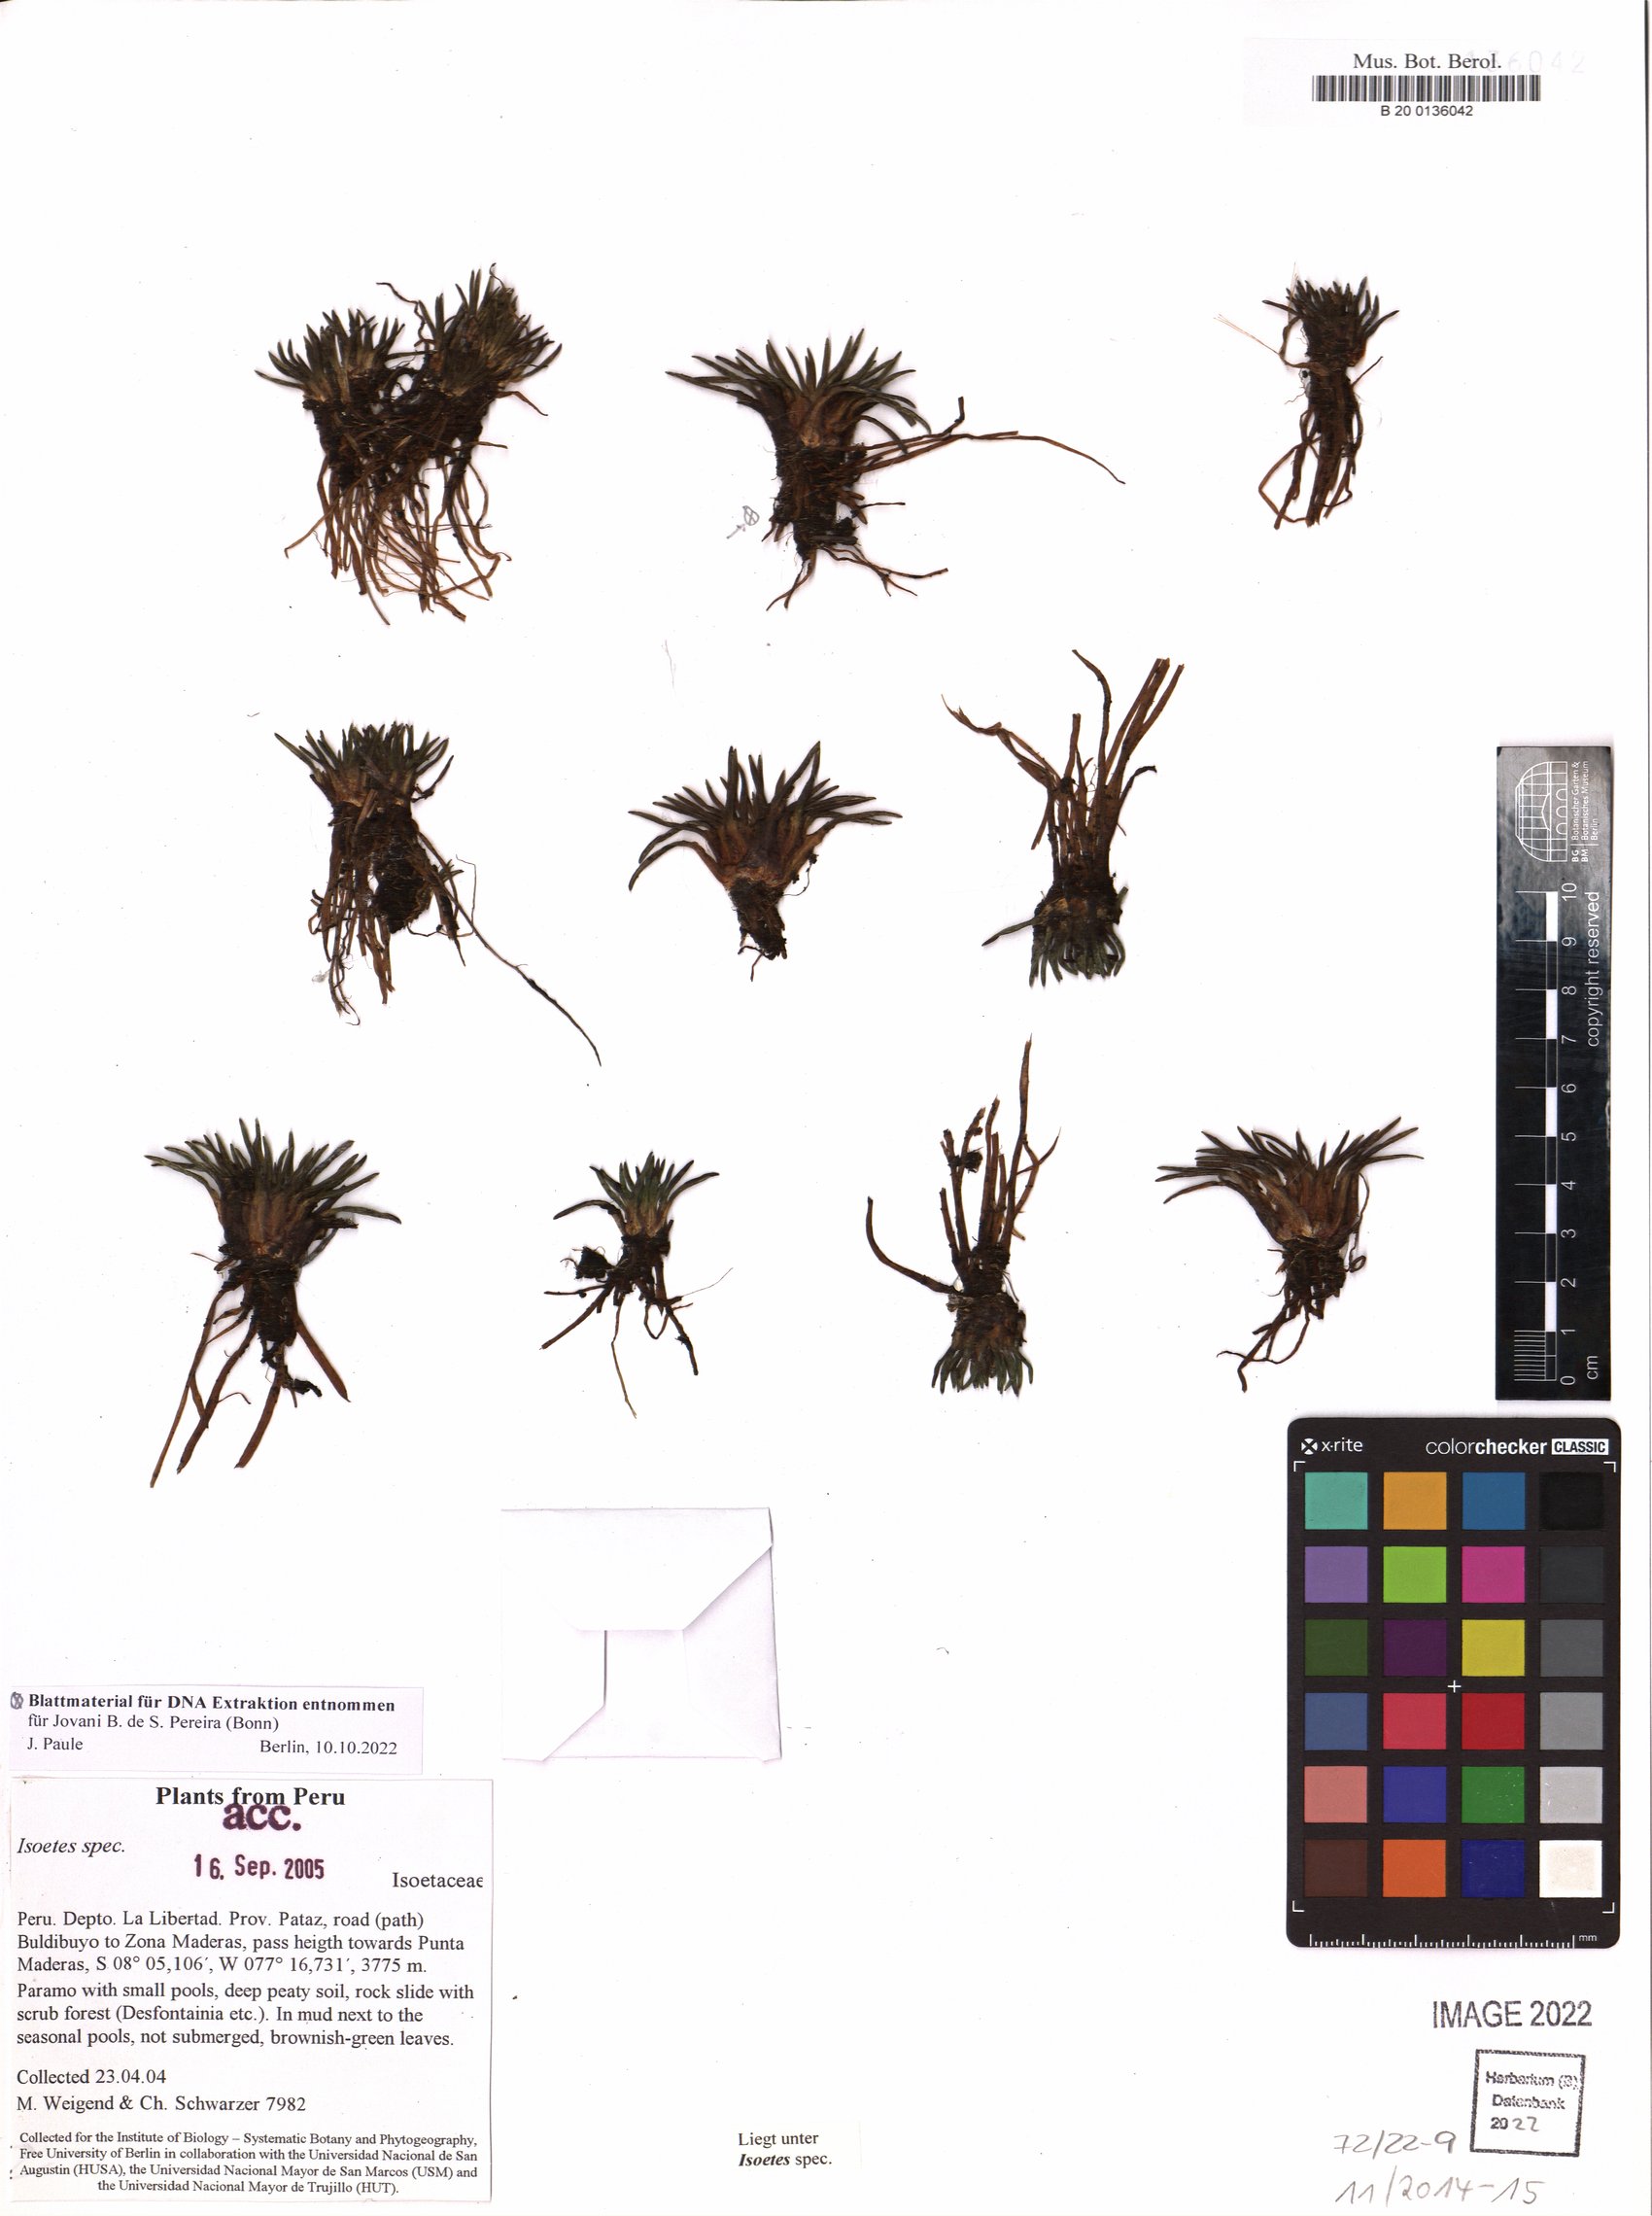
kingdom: Plantae
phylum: Tracheophyta
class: Lycopodiopsida
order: Isoetales
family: Isoetaceae
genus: Isoetes
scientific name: Isoetes
